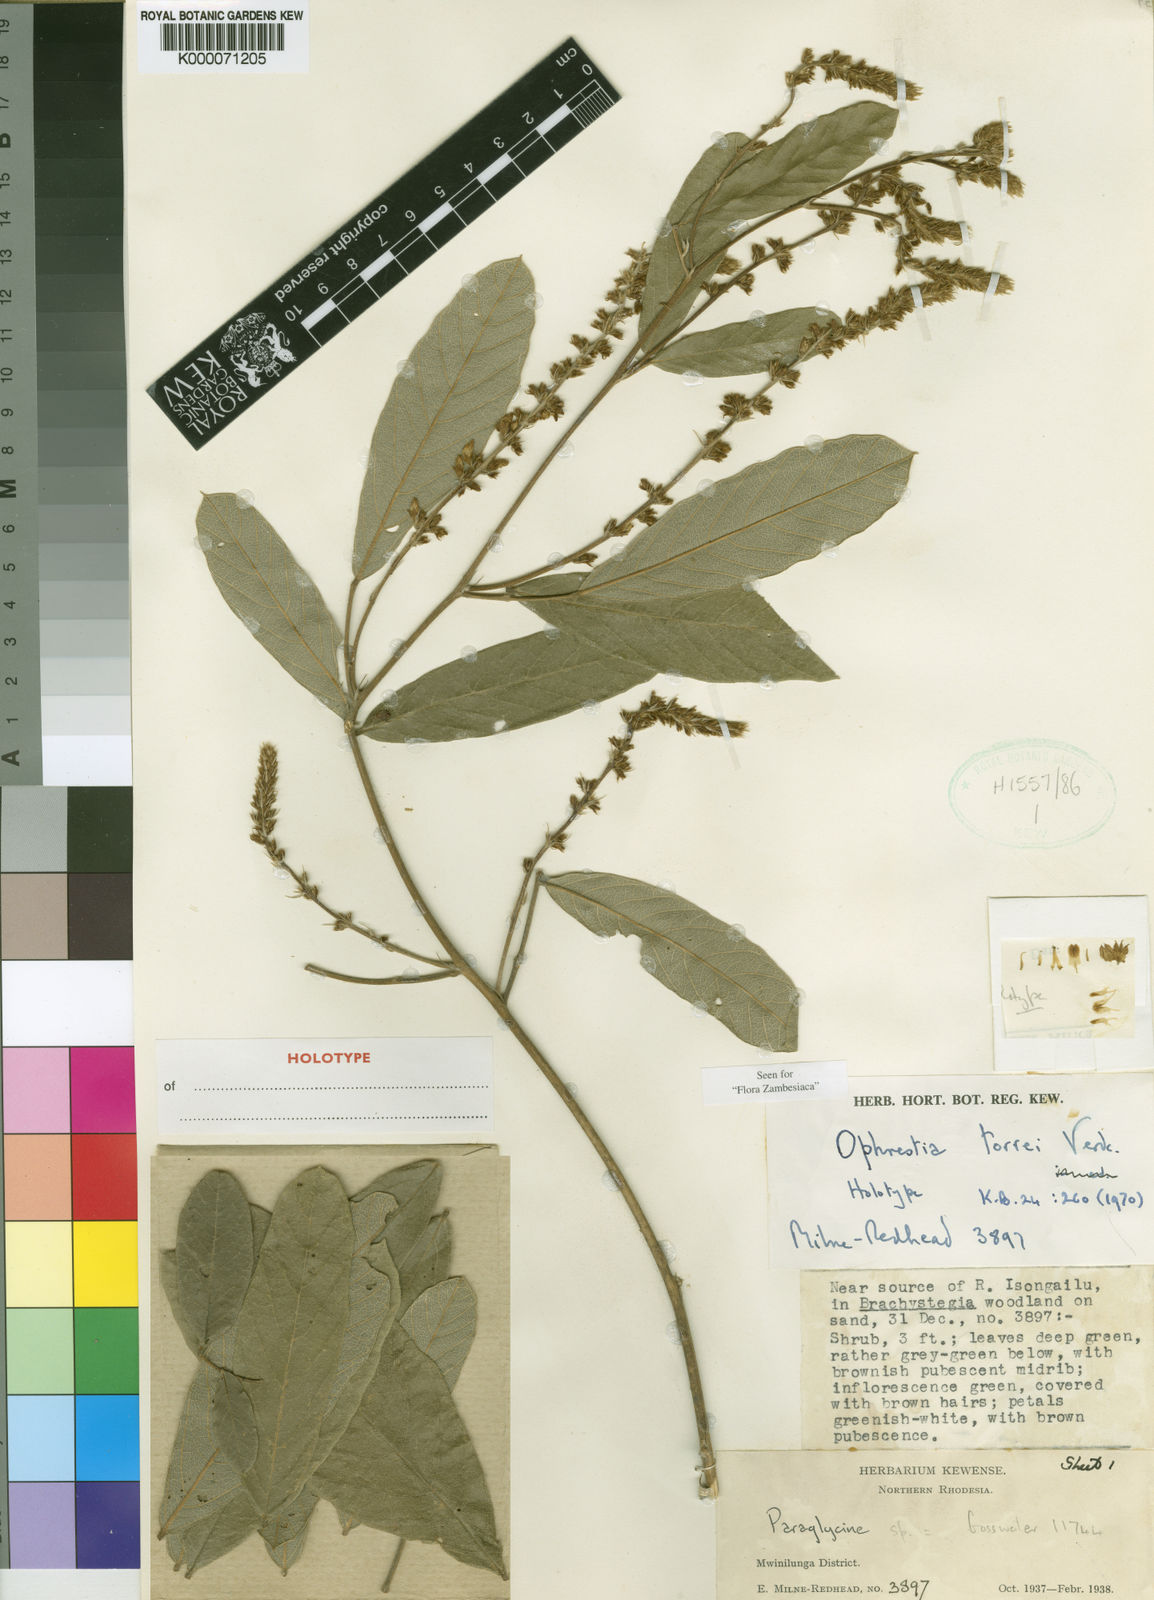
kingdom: Plantae
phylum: Tracheophyta
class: Magnoliopsida
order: Fabales
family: Fabaceae
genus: Ophrestia
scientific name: Ophrestia torrei
